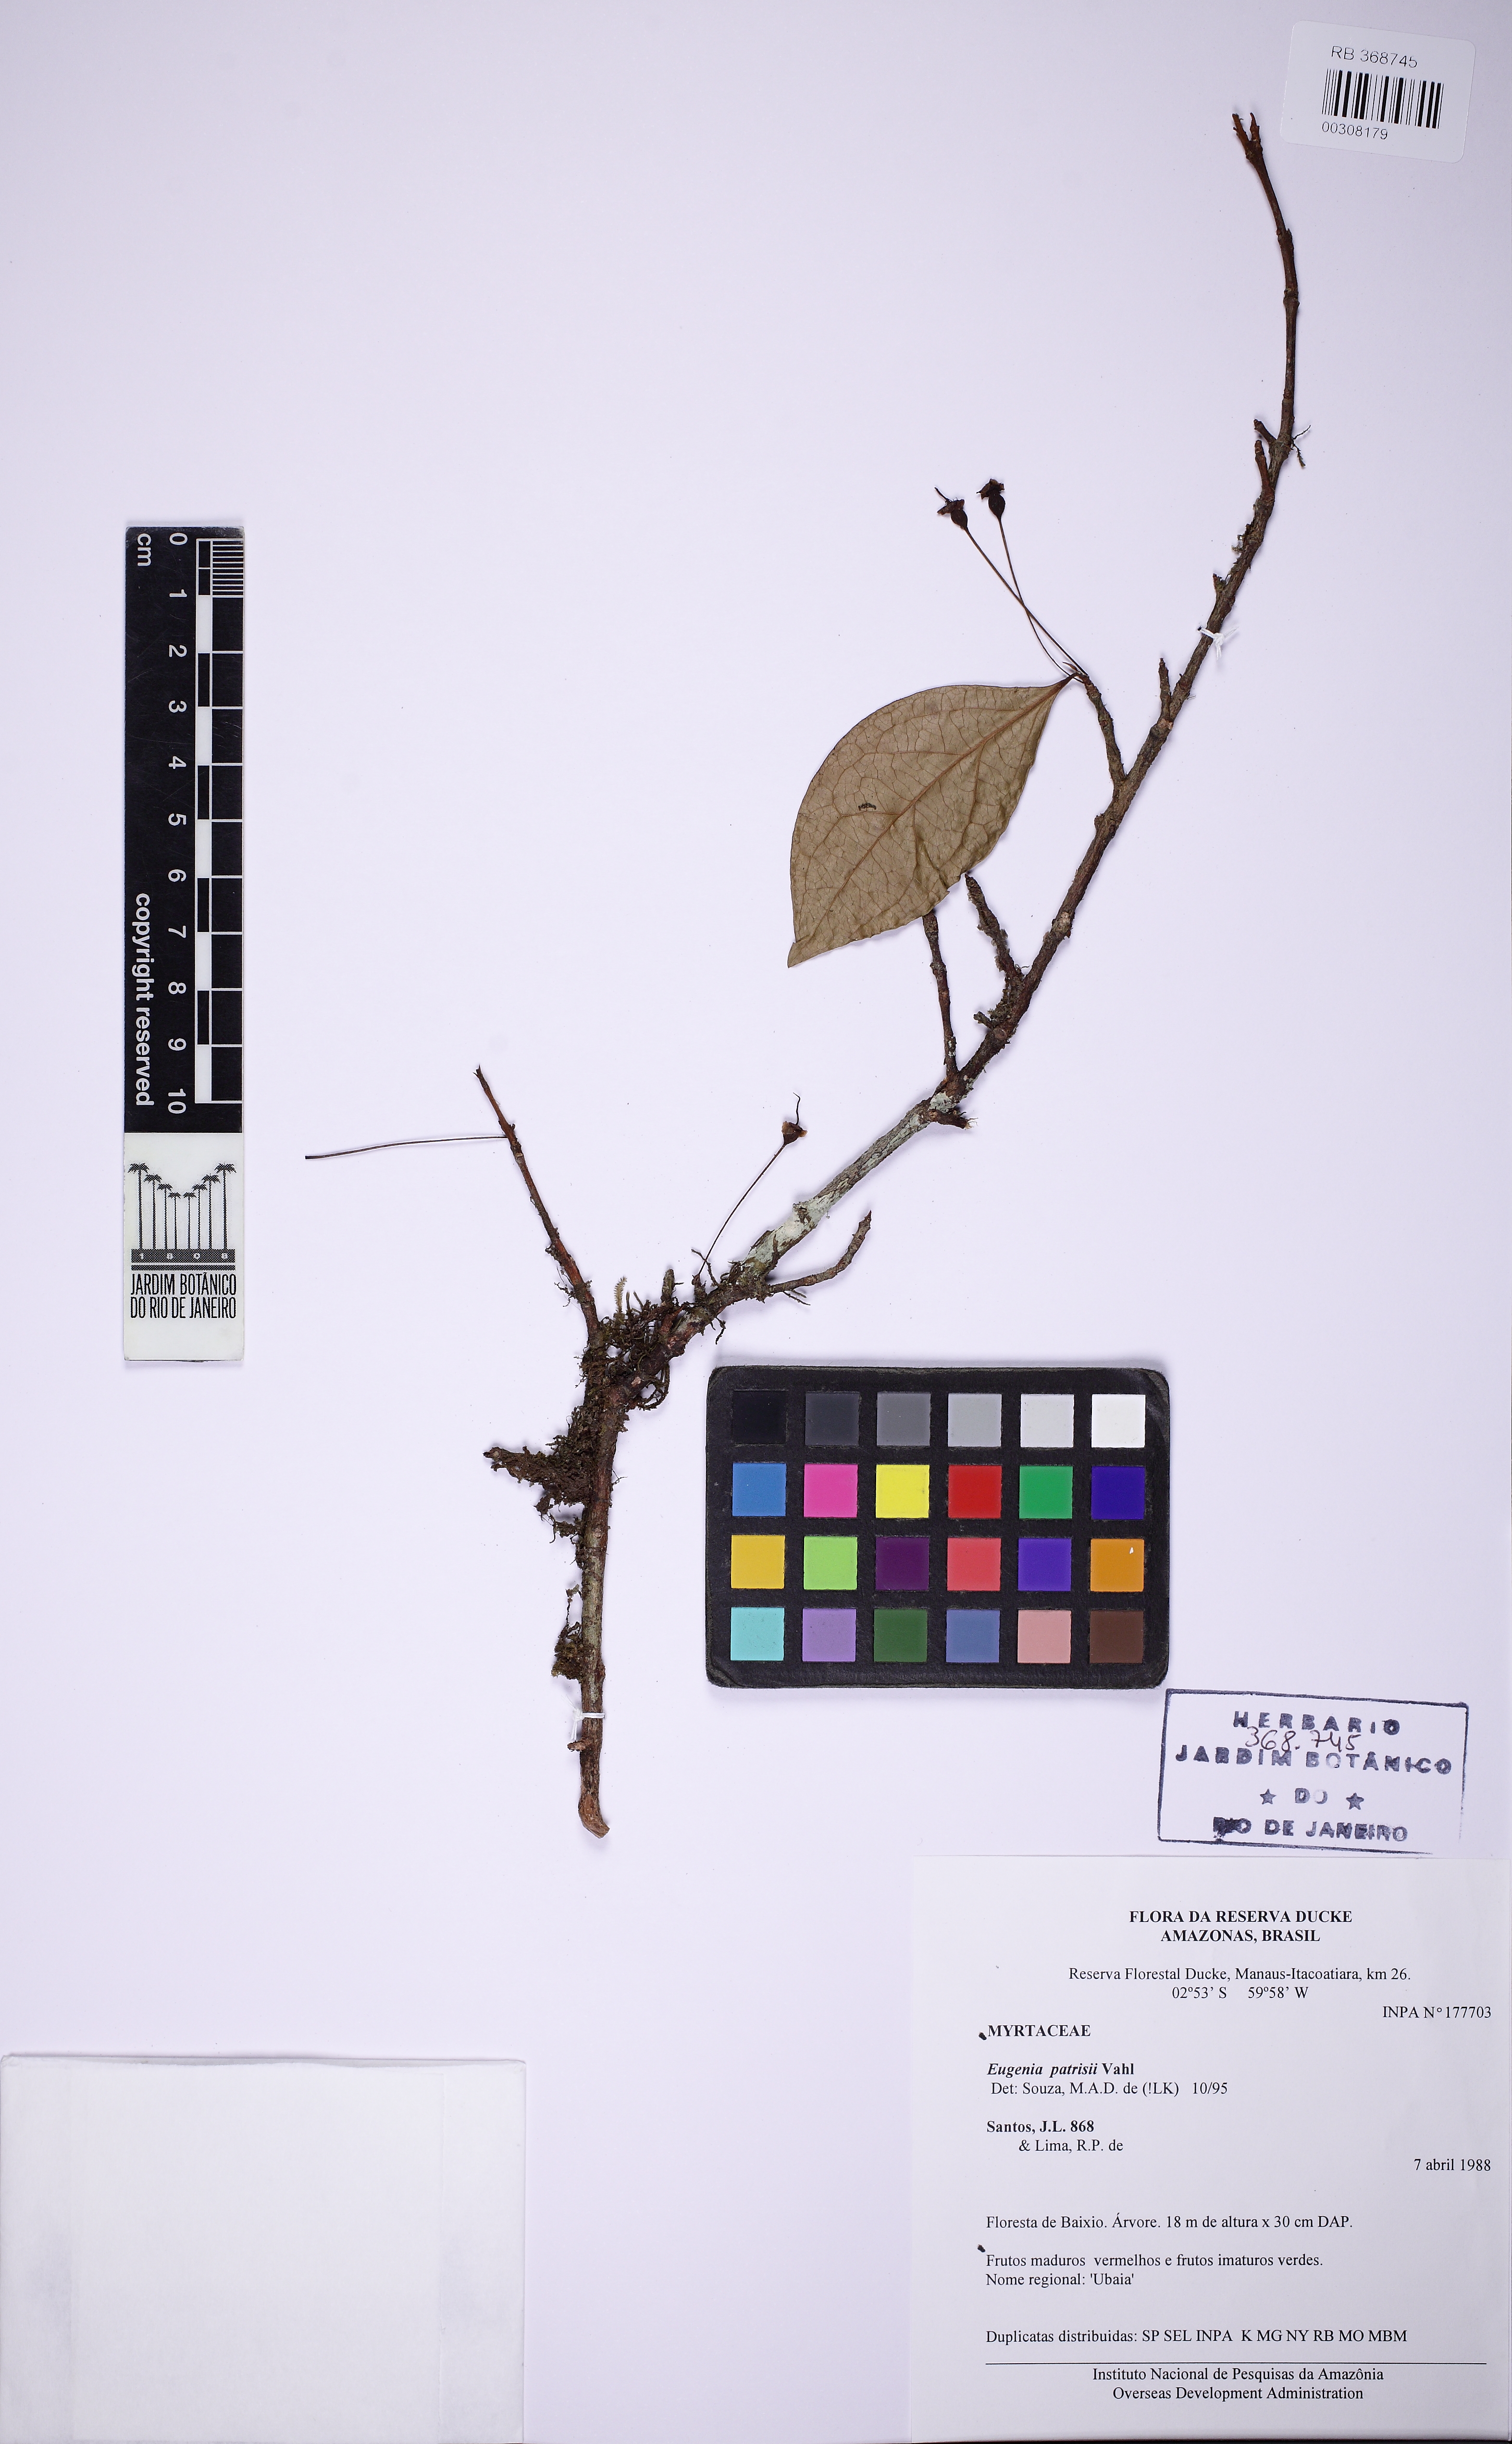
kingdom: Plantae
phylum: Tracheophyta
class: Magnoliopsida
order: Myrtales
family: Myrtaceae
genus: Eugenia
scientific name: Eugenia patrisii
